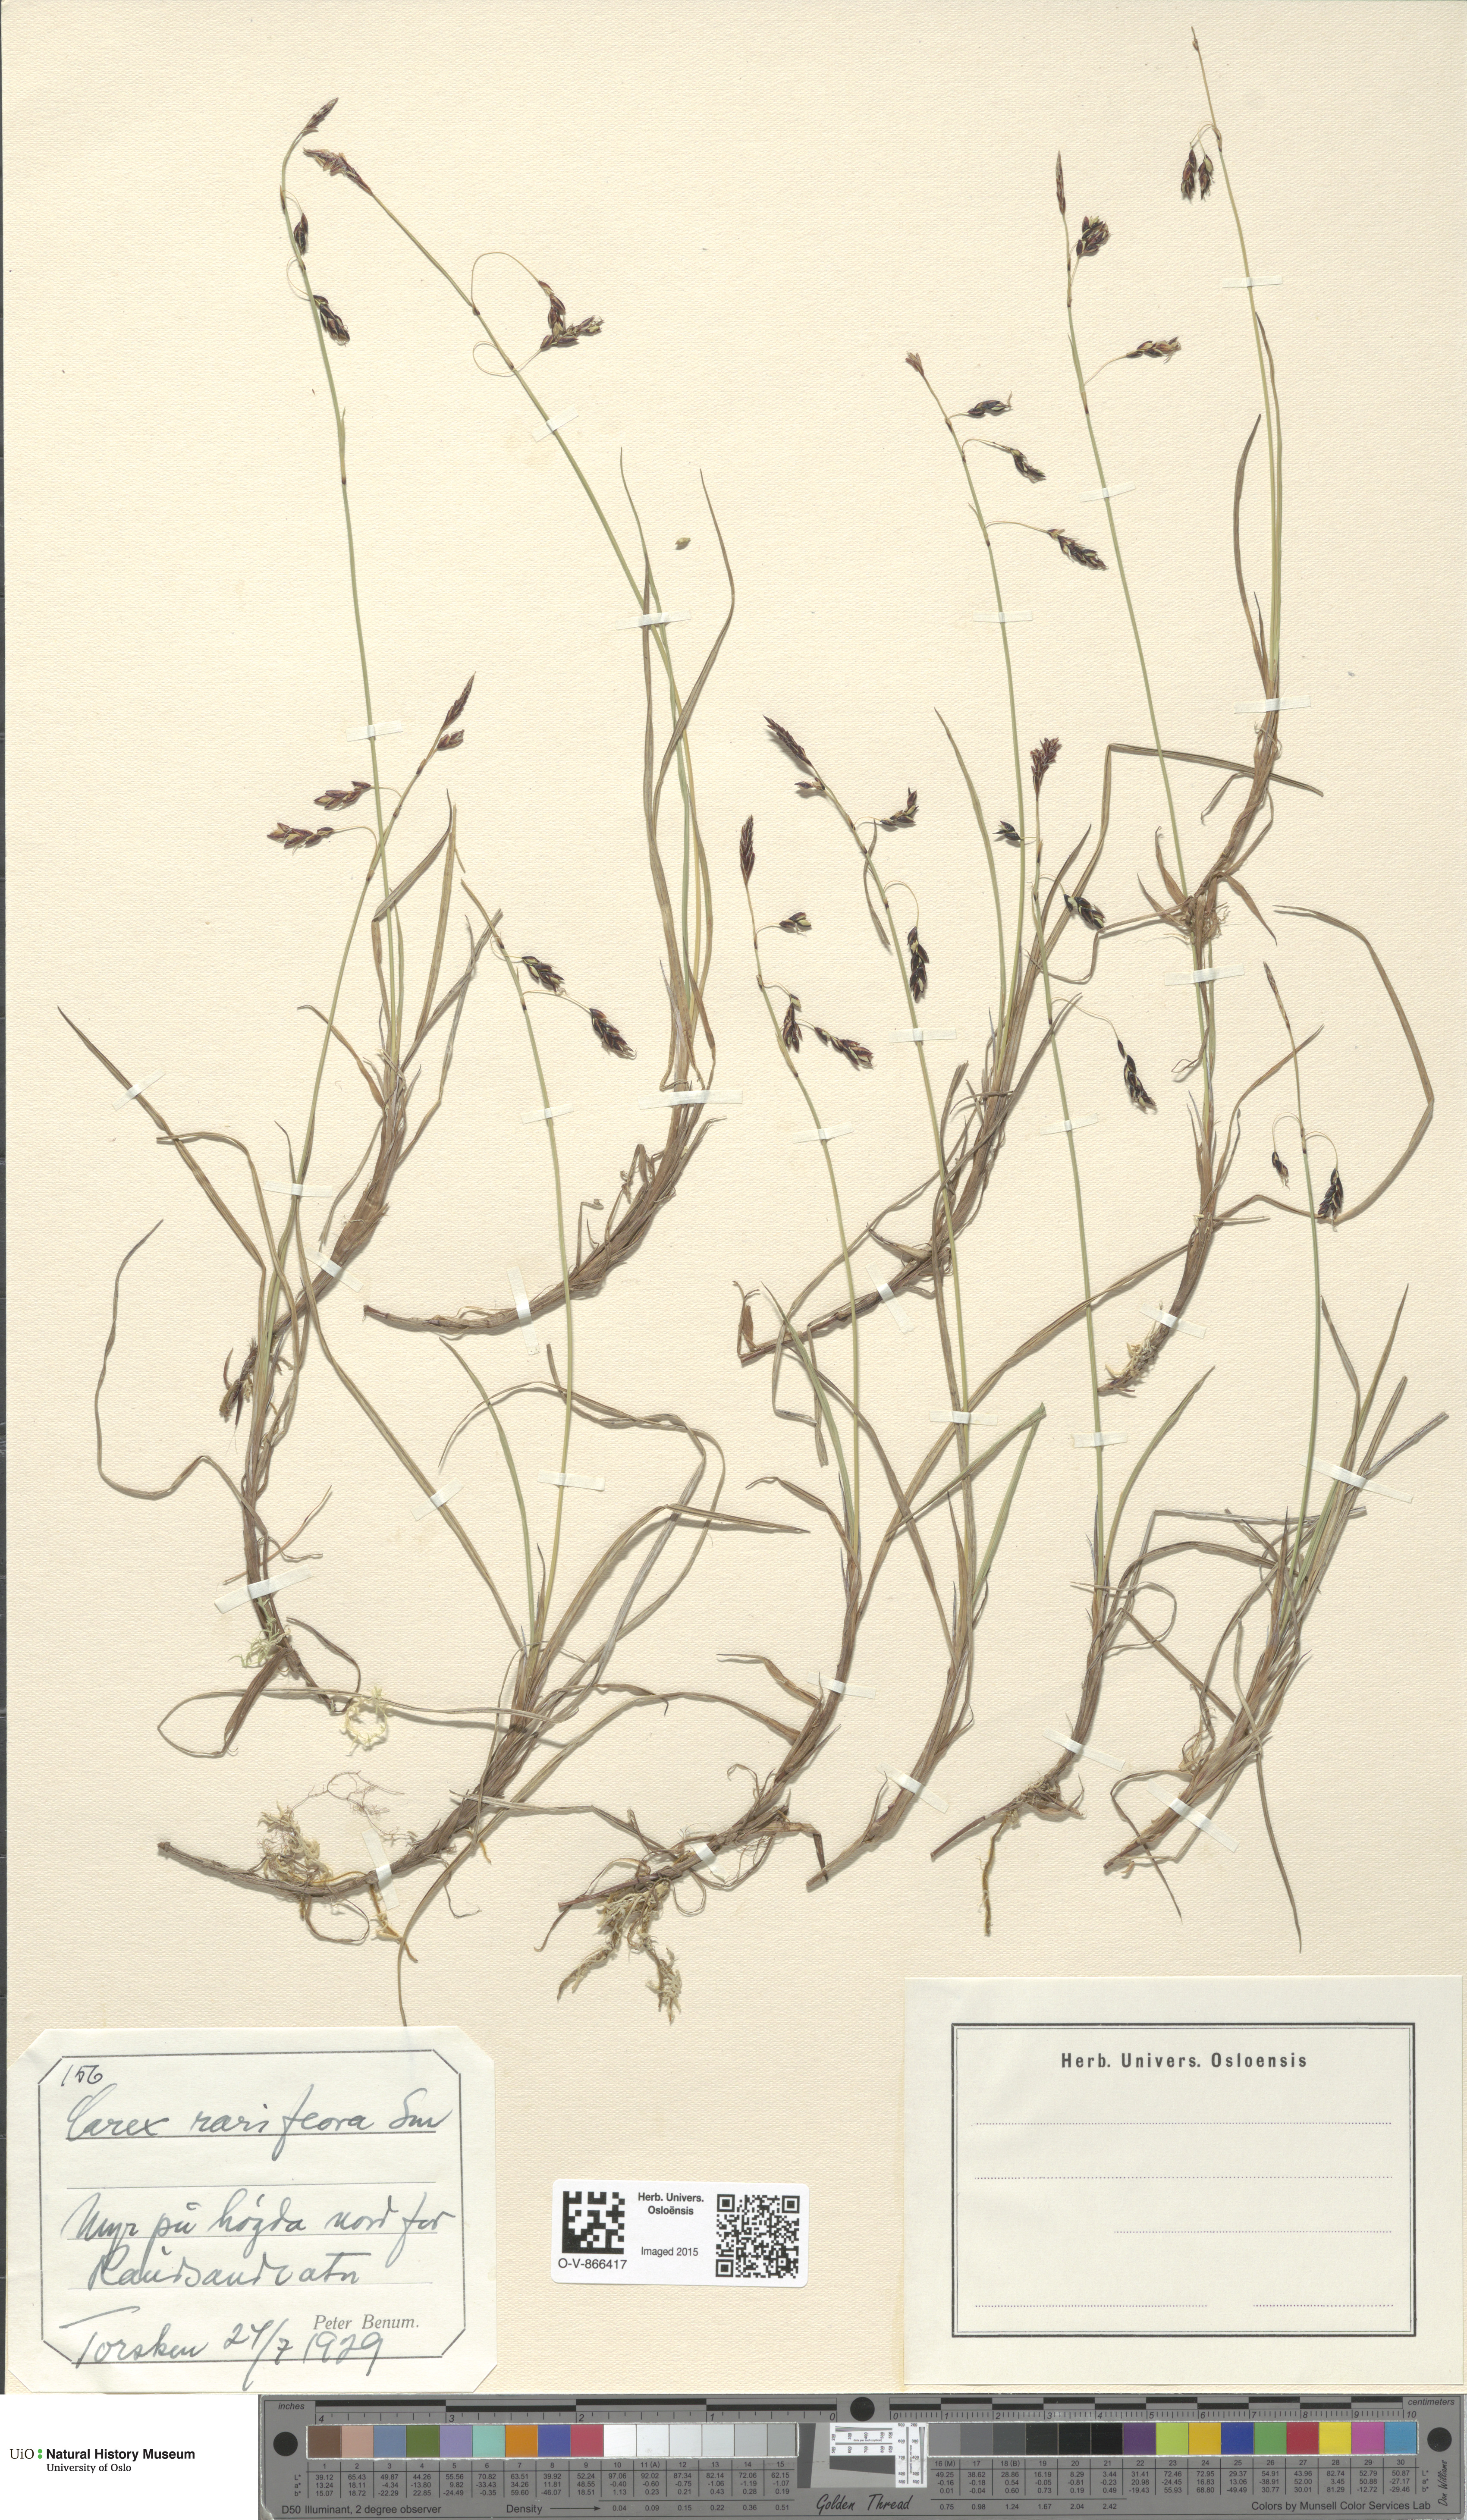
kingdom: Plantae
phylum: Tracheophyta
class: Liliopsida
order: Poales
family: Cyperaceae
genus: Carex
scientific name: Carex rariflora
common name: Loose-flowered alpine sedge
